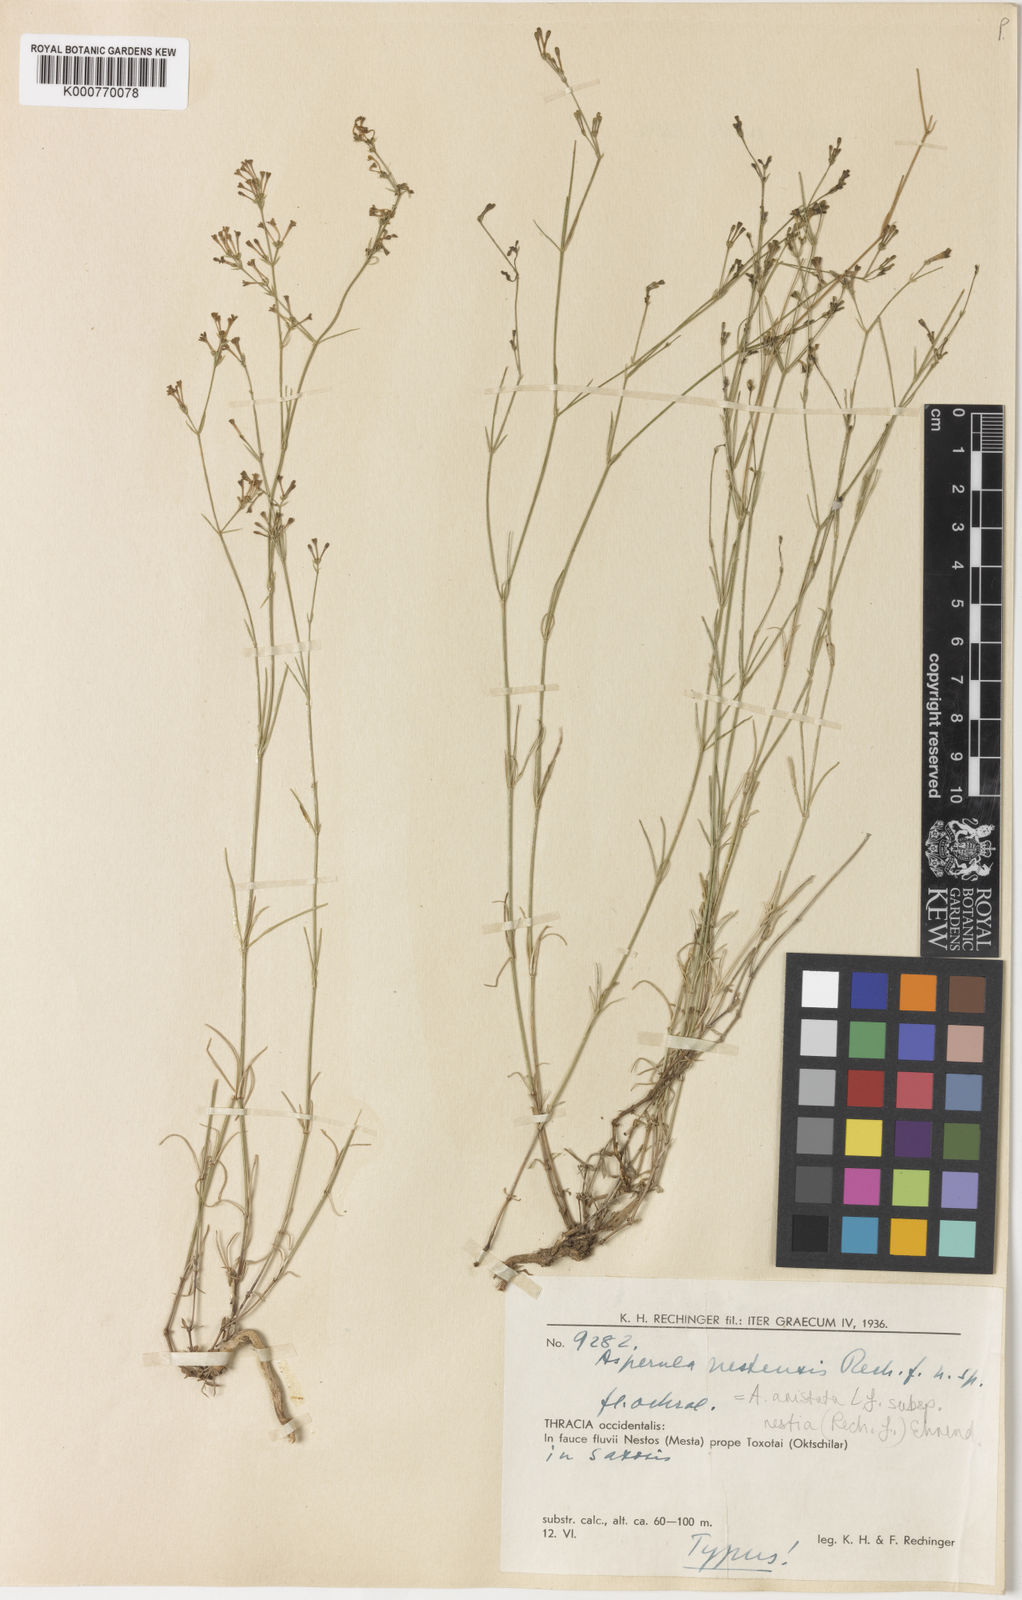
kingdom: Plantae
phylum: Tracheophyta
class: Magnoliopsida
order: Gentianales
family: Rubiaceae
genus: Cynanchica
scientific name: Cynanchica aristata
